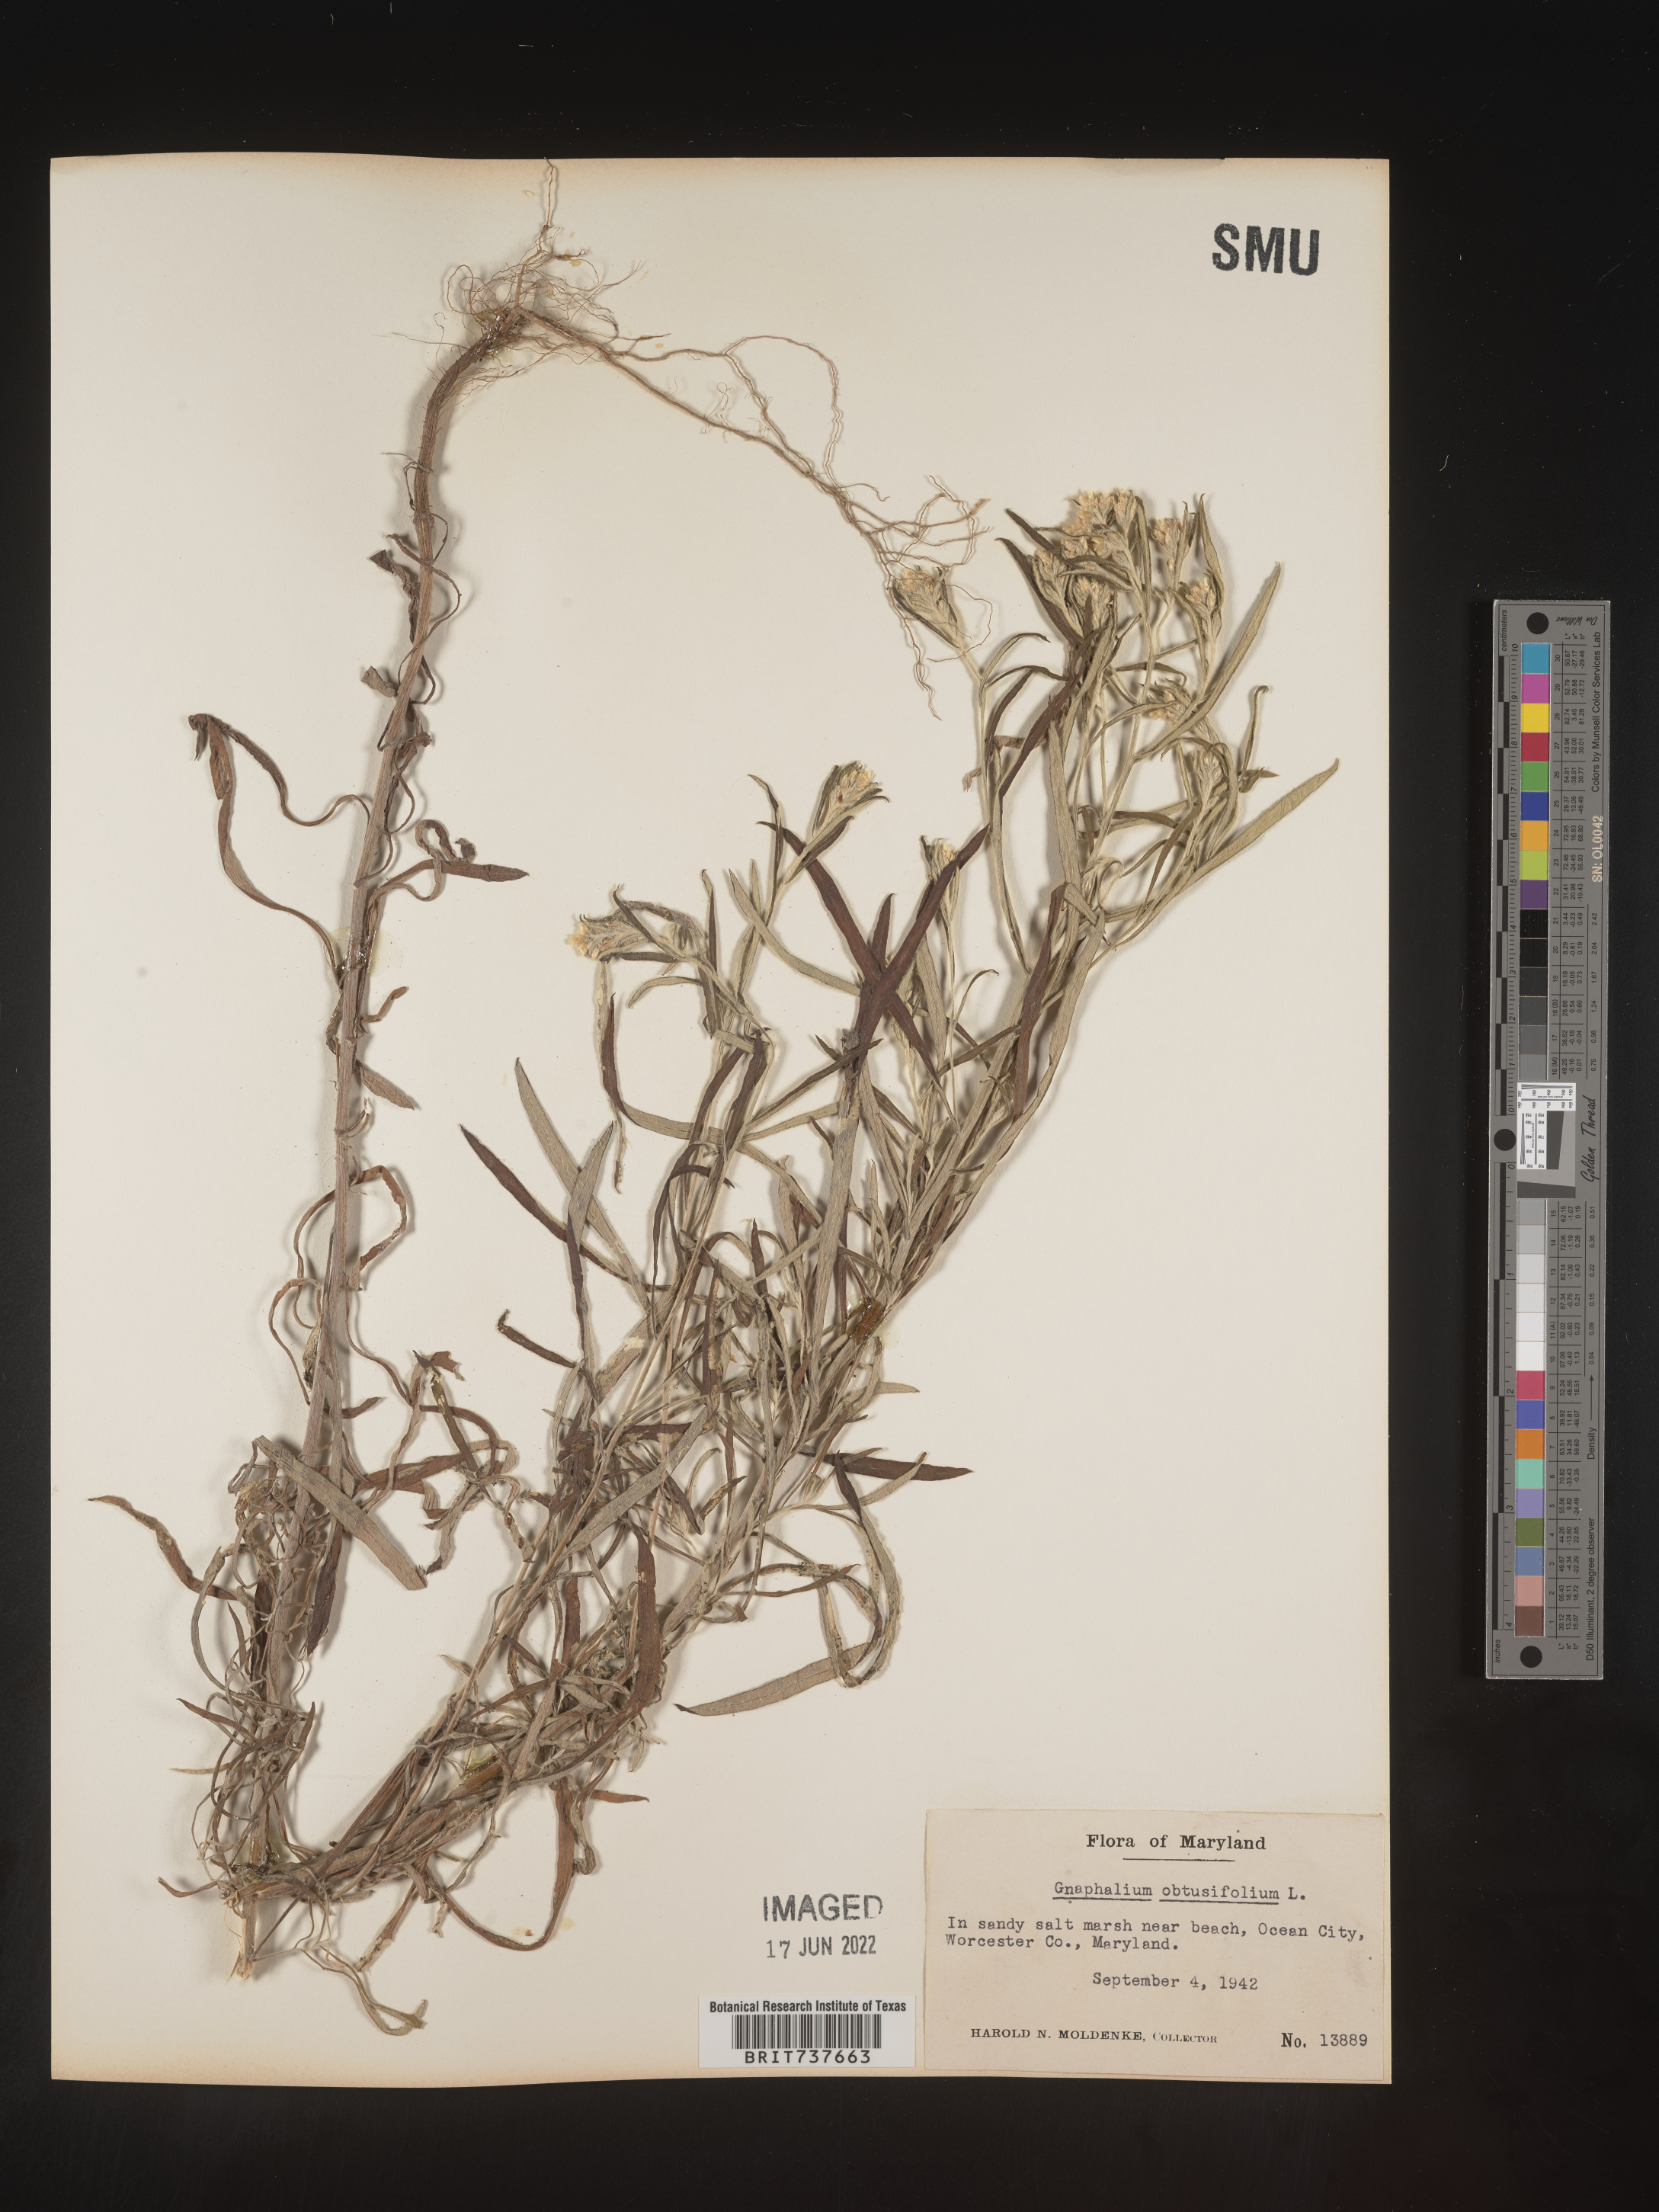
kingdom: Plantae
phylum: Tracheophyta
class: Magnoliopsida
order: Asterales
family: Asteraceae
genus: Pseudognaphalium
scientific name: Pseudognaphalium obtusifolium
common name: Eastern rabbit-tobacco
